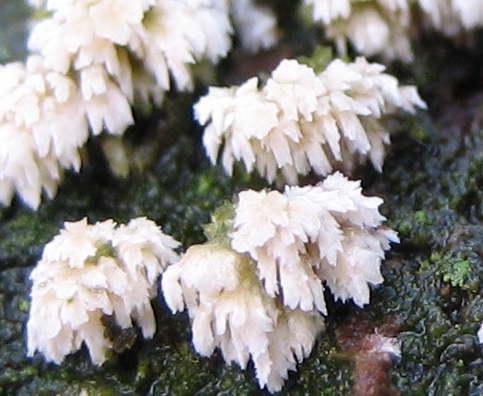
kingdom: Fungi
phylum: Basidiomycota
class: Agaricomycetes
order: Corticiales
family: Corticiaceae
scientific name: Corticiaceae
